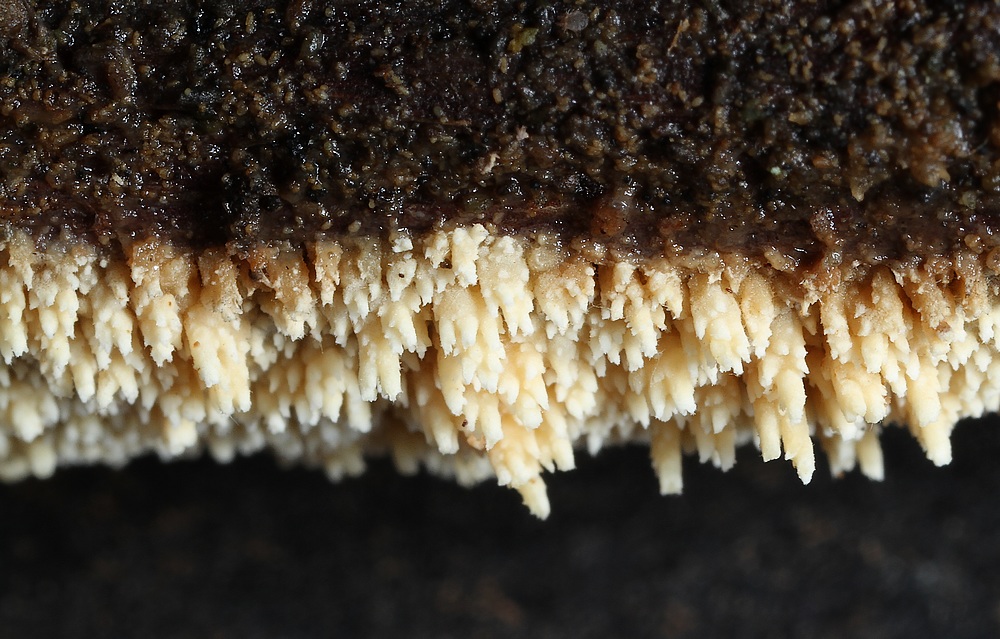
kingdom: Fungi
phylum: Basidiomycota
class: Agaricomycetes
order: Hymenochaetales
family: Hyphodontiaceae
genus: Hyphodontia
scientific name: Hyphodontia arguta
